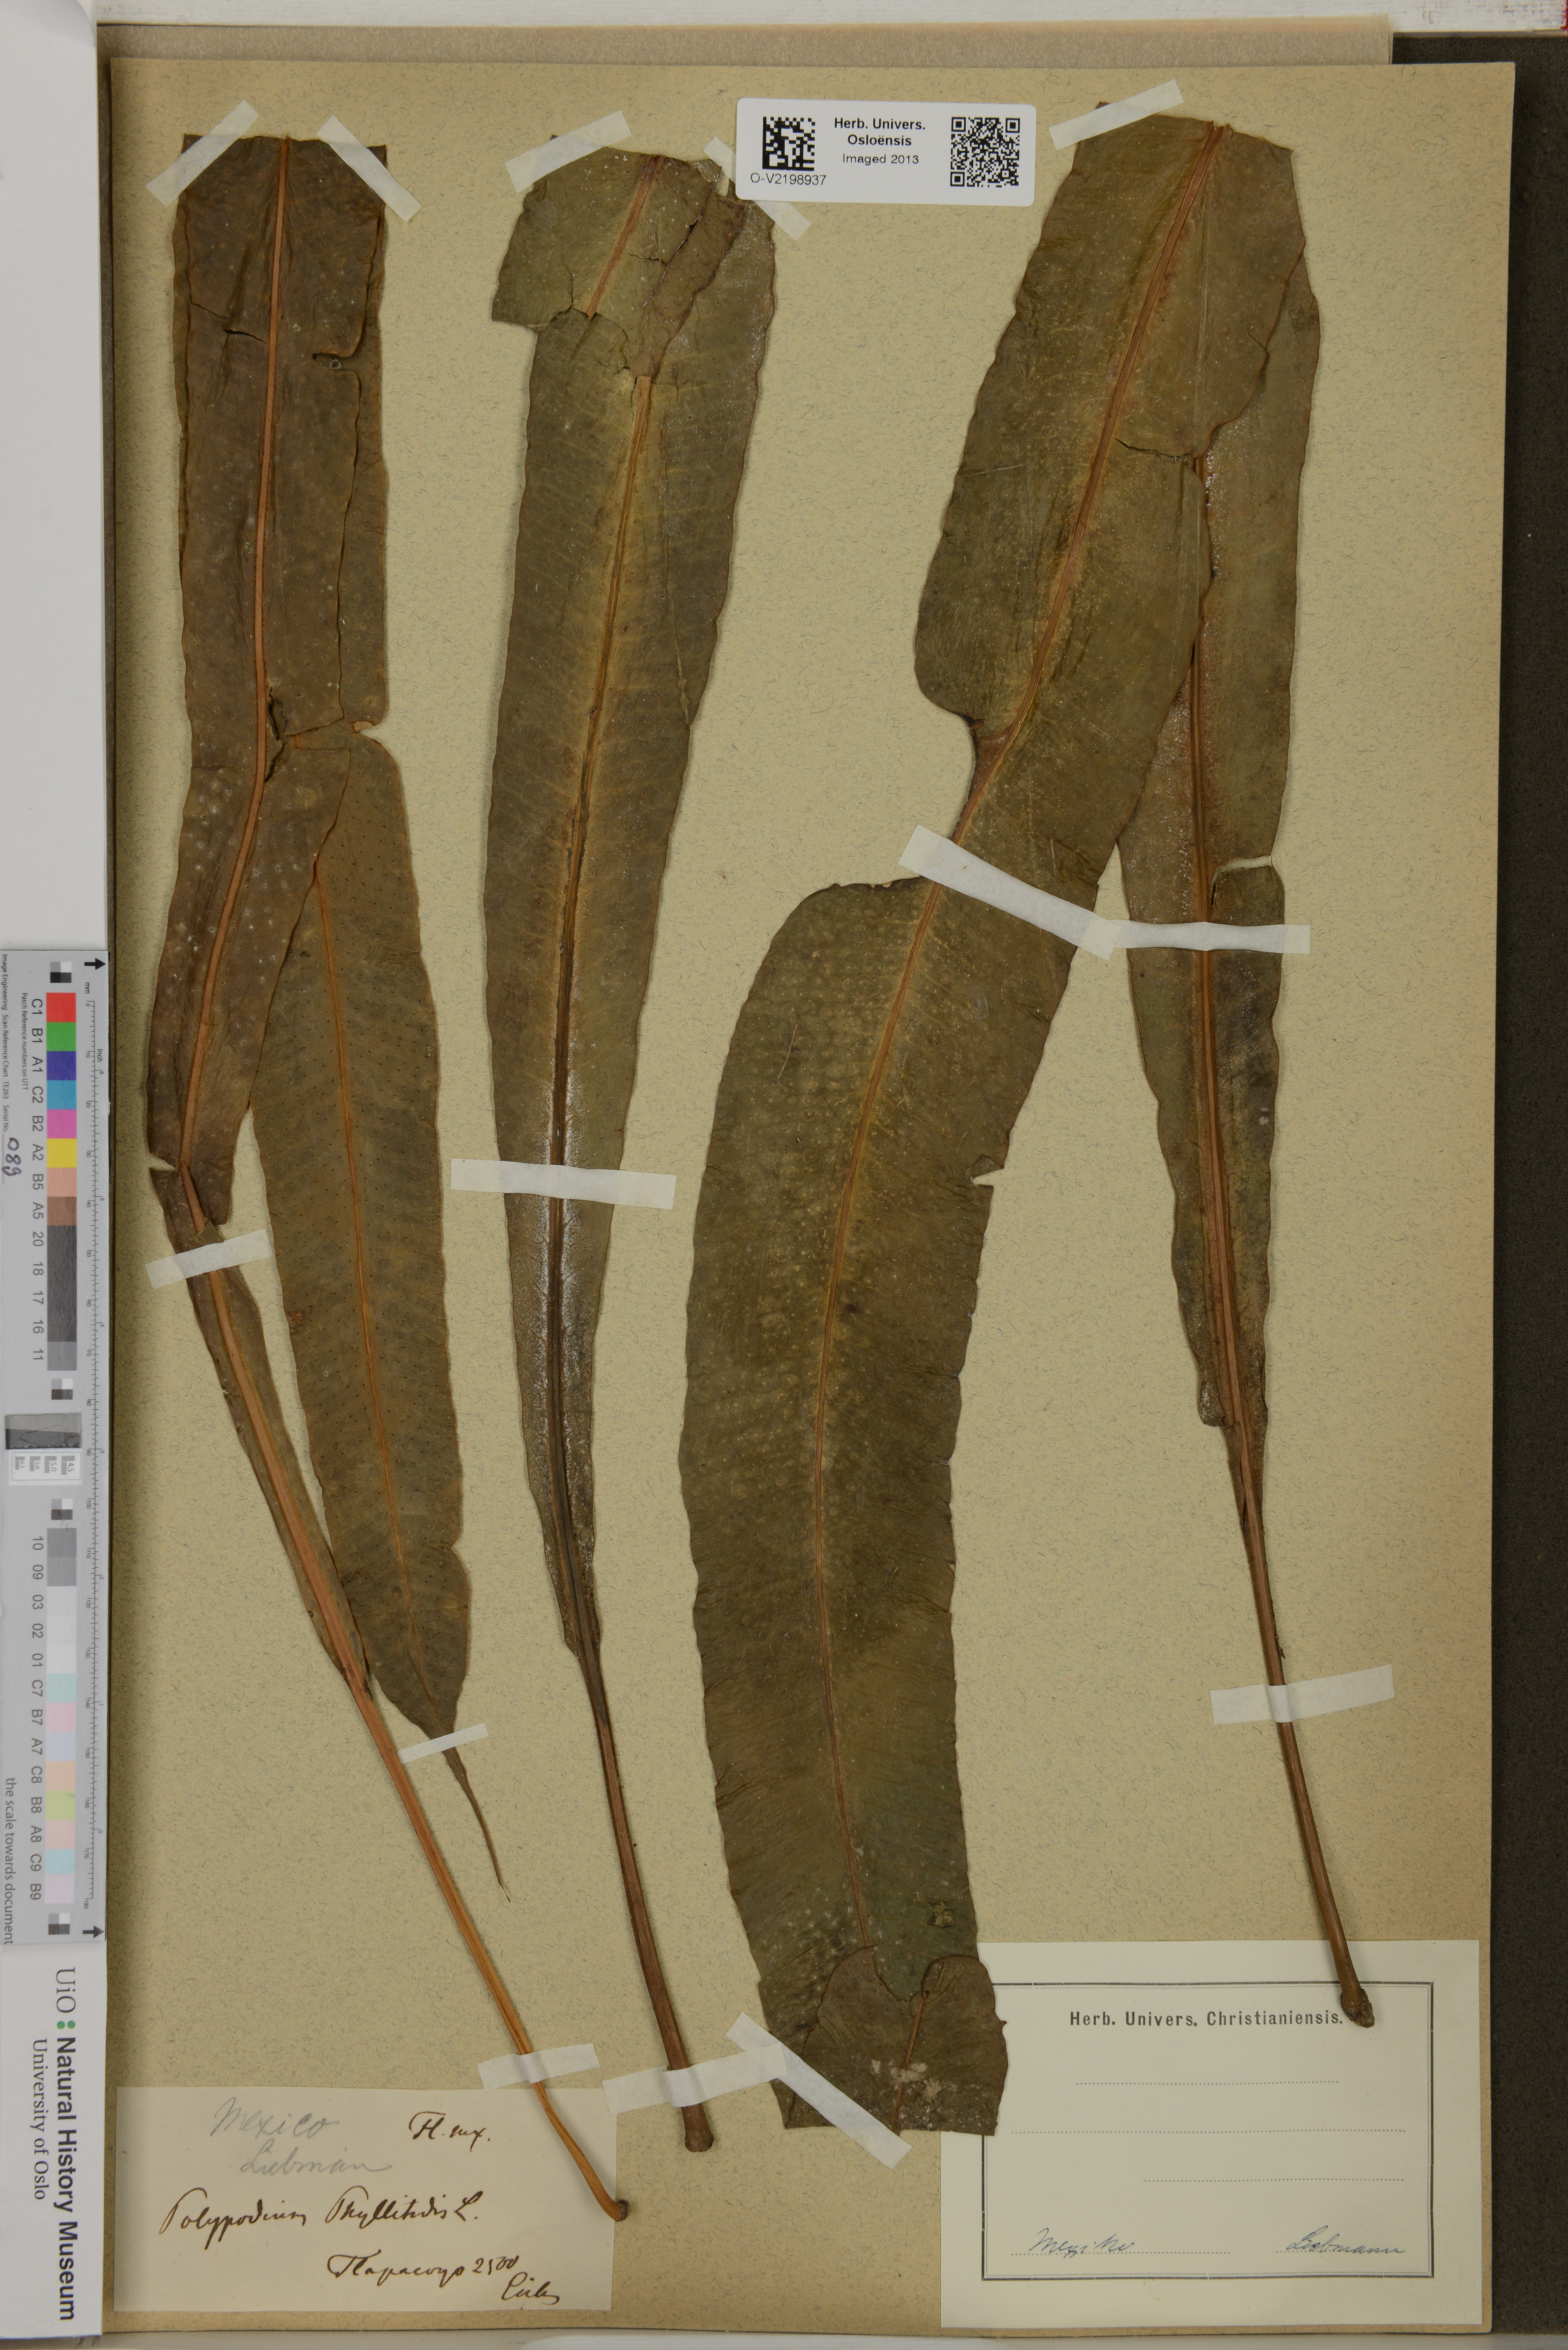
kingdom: Plantae
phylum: Tracheophyta
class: Polypodiopsida
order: Polypodiales
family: Polypodiaceae
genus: Polypodium
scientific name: Polypodium phyllitidis
